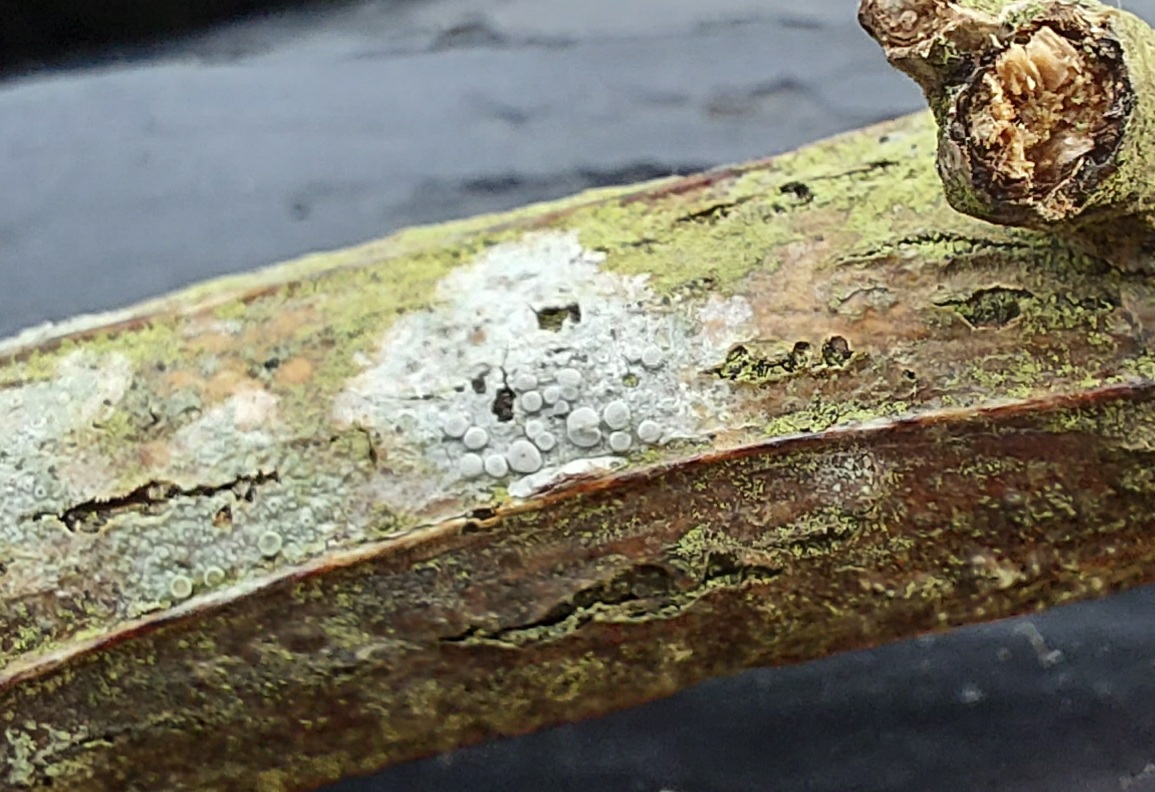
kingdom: Fungi
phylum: Ascomycota
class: Lecanoromycetes
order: Lecanorales
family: Lecanoraceae
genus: Glaucomaria
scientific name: Glaucomaria carpinea
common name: hviddugget kantskivelav
